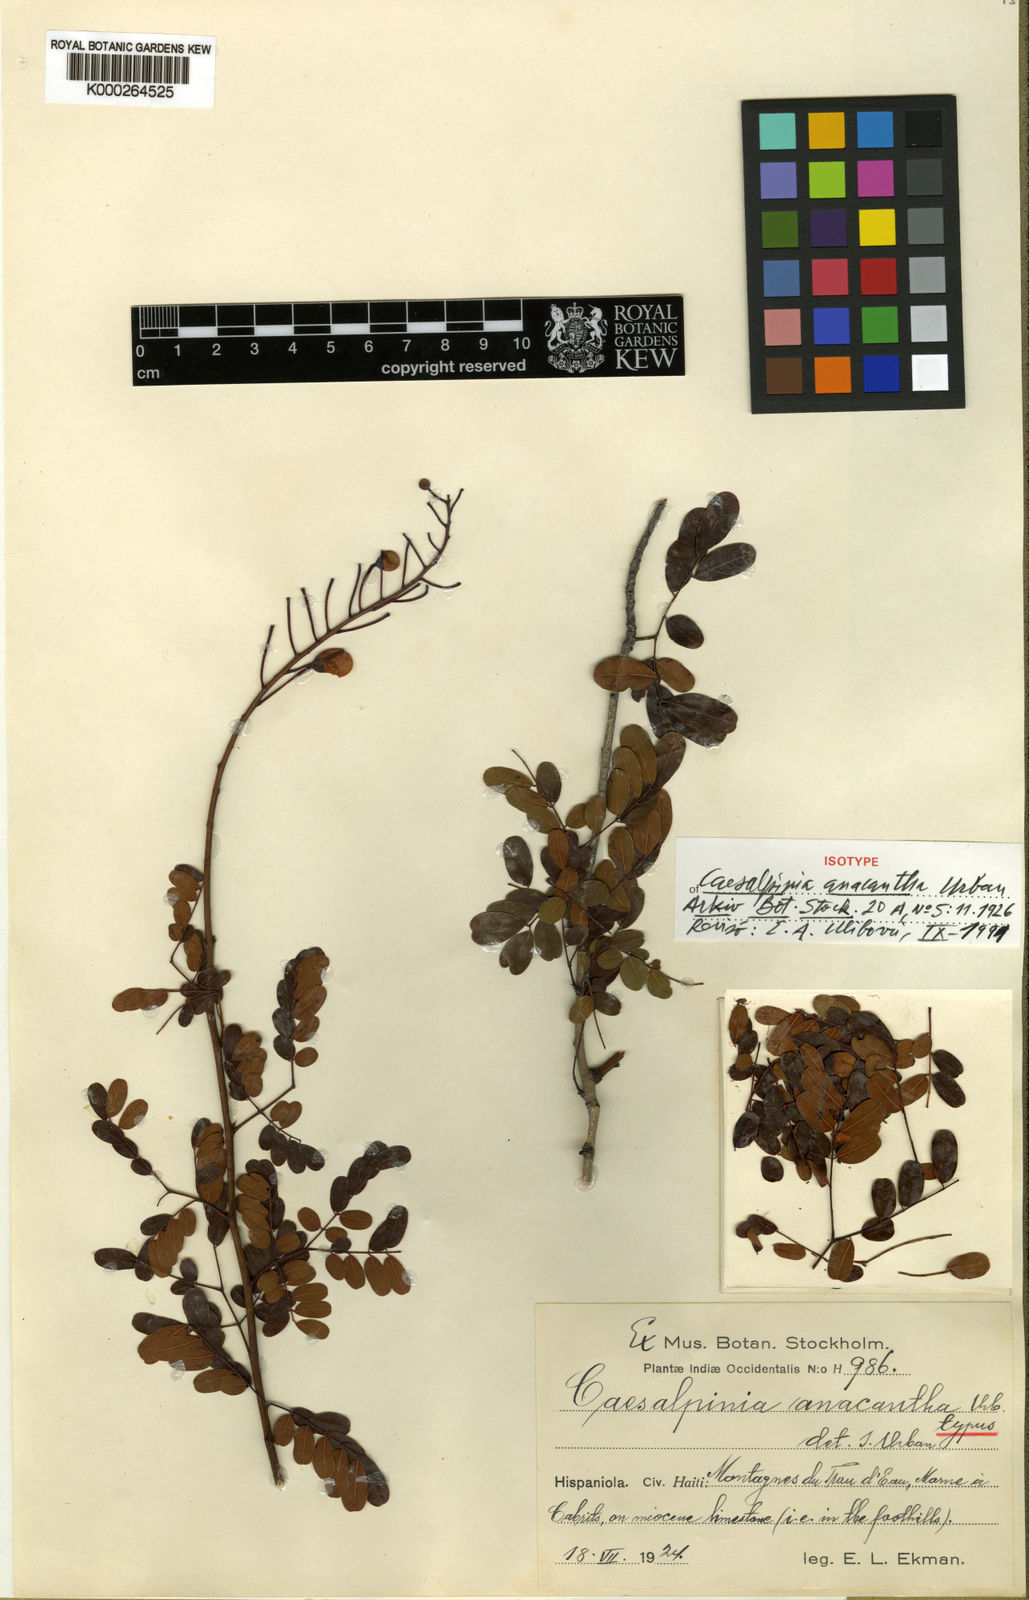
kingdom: Plantae
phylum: Tracheophyta
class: Magnoliopsida
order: Fabales
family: Fabaceae
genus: Caesalpinia
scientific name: Caesalpinia anacantha
